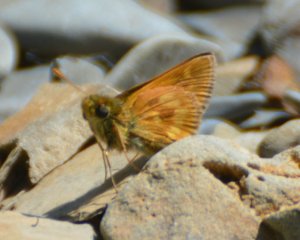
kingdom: Animalia
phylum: Arthropoda
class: Insecta
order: Lepidoptera
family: Hesperiidae
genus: Polites
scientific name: Polites
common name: Long Dash Skipper
